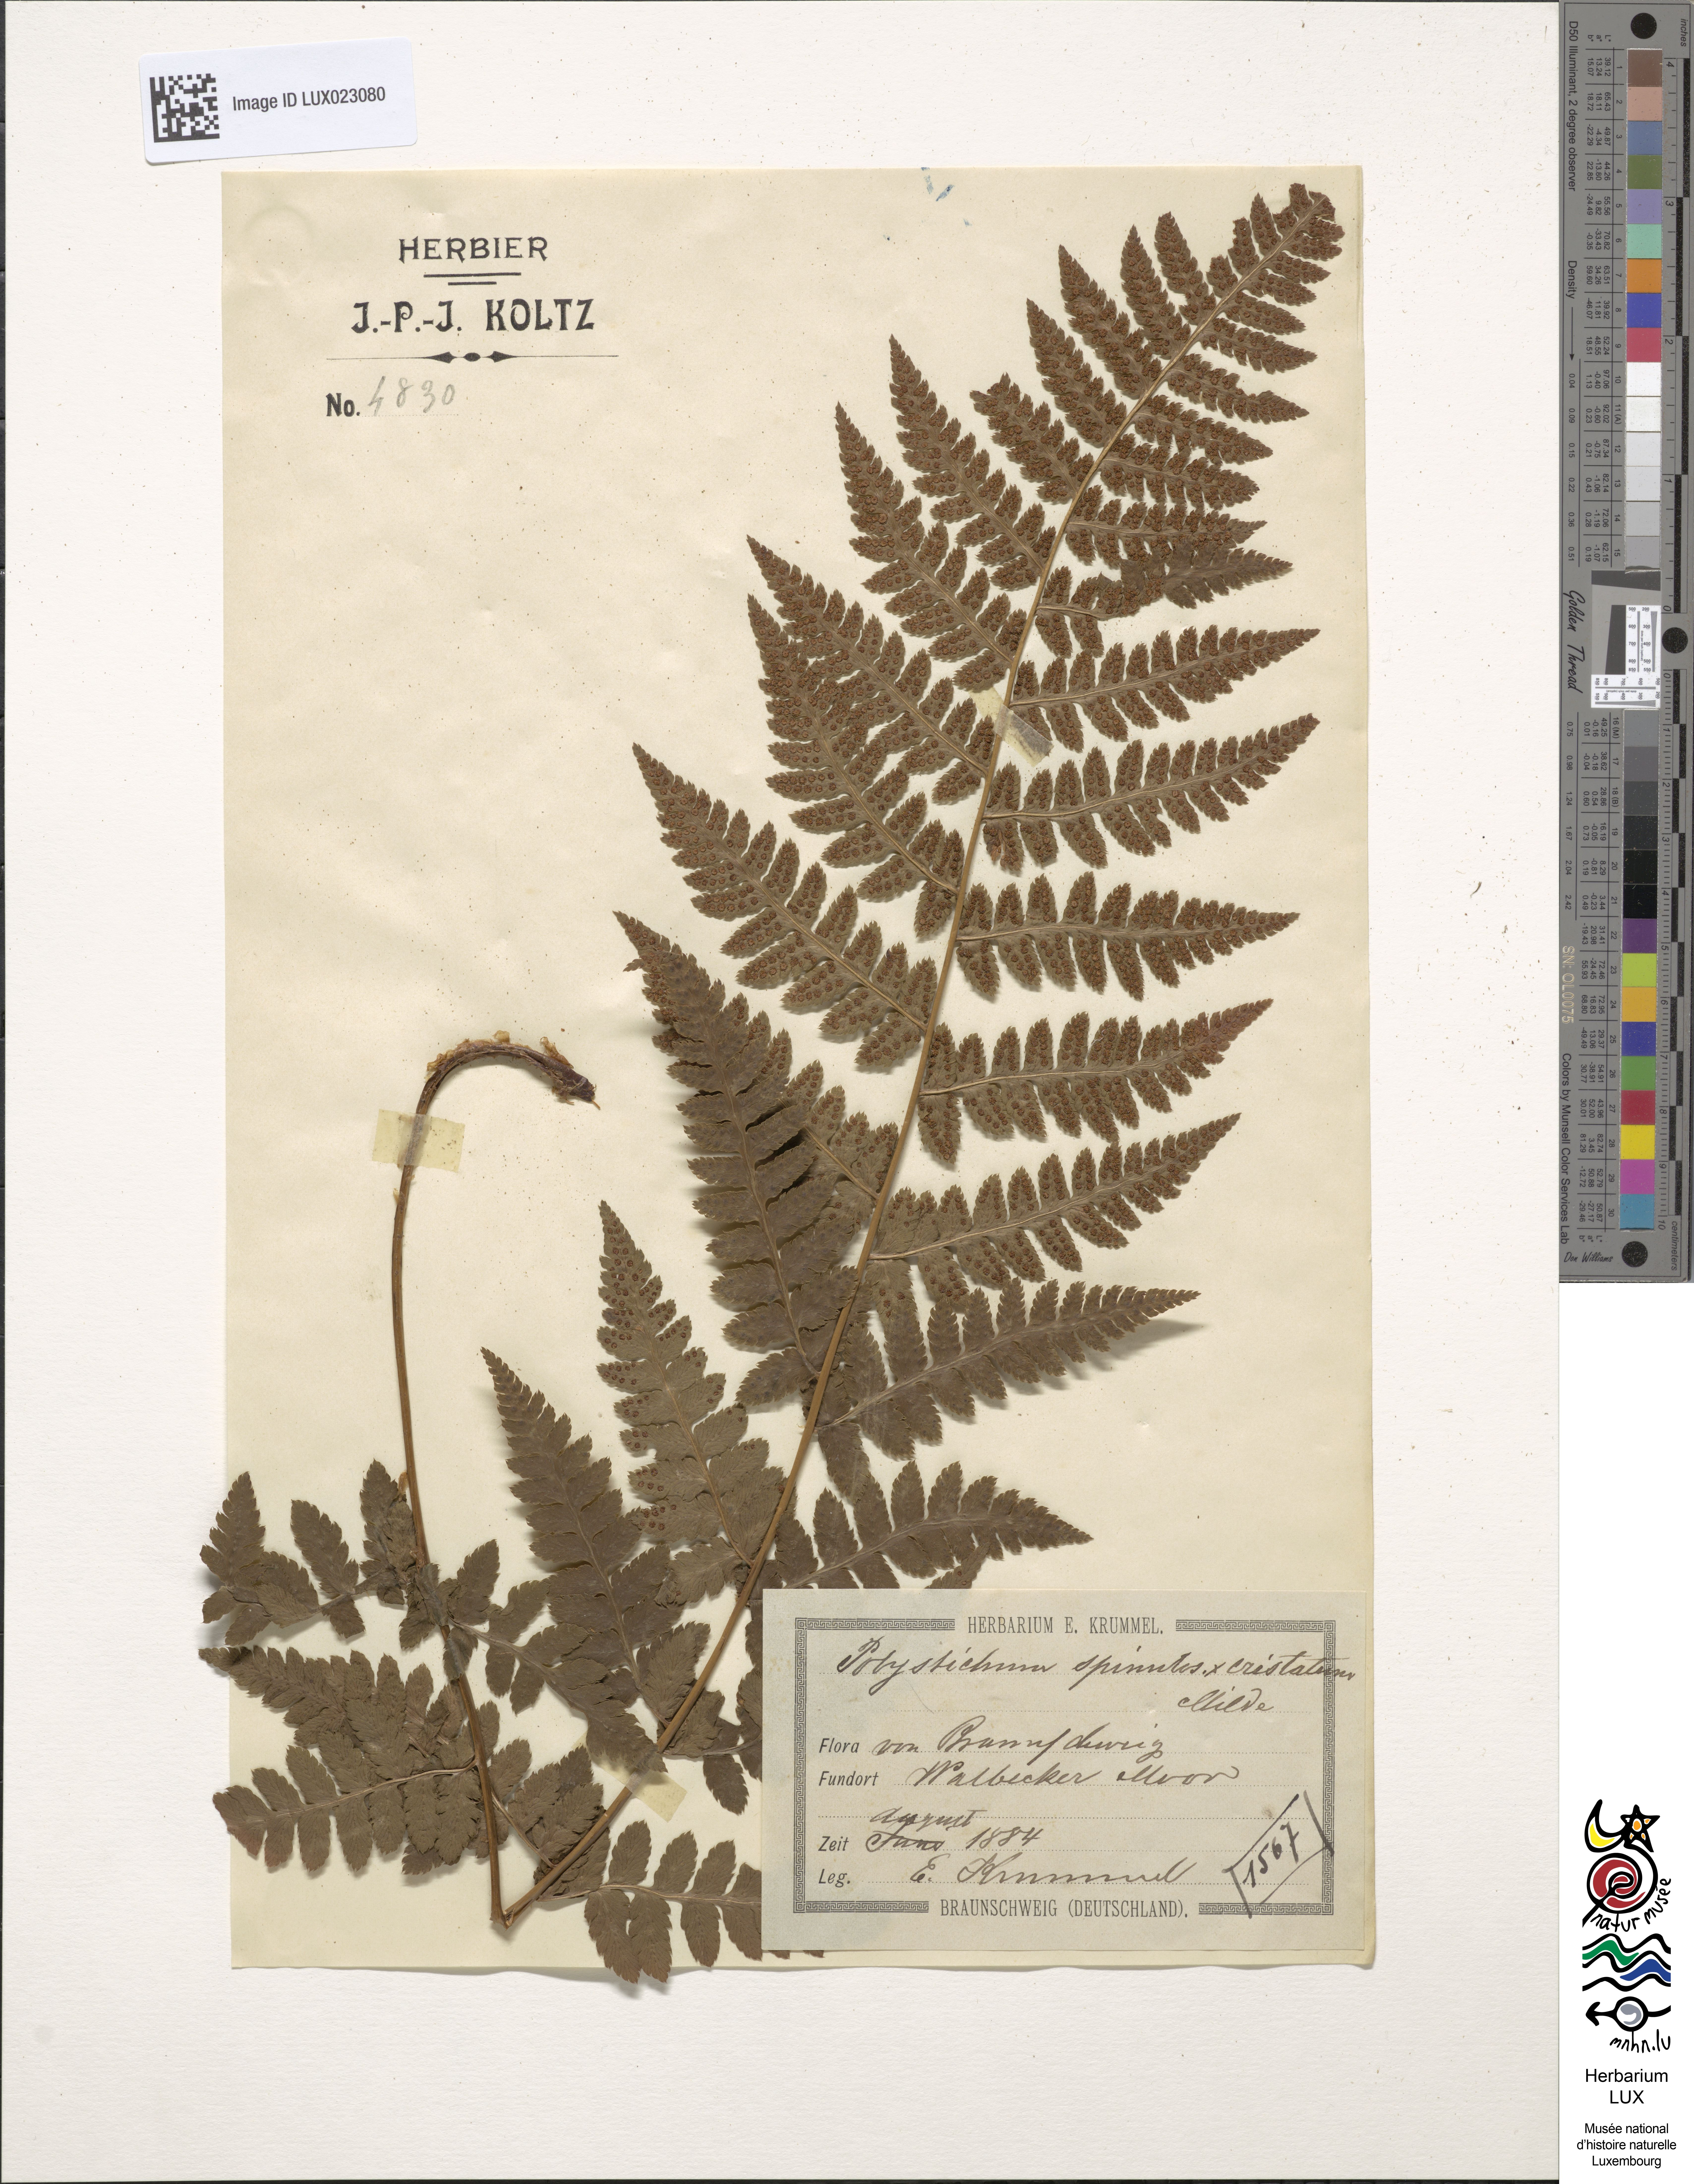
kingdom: Plantae
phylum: Tracheophyta
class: Polypodiopsida
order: Polypodiales
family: Dryopteridaceae
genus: Dryopteris
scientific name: Dryopteris
